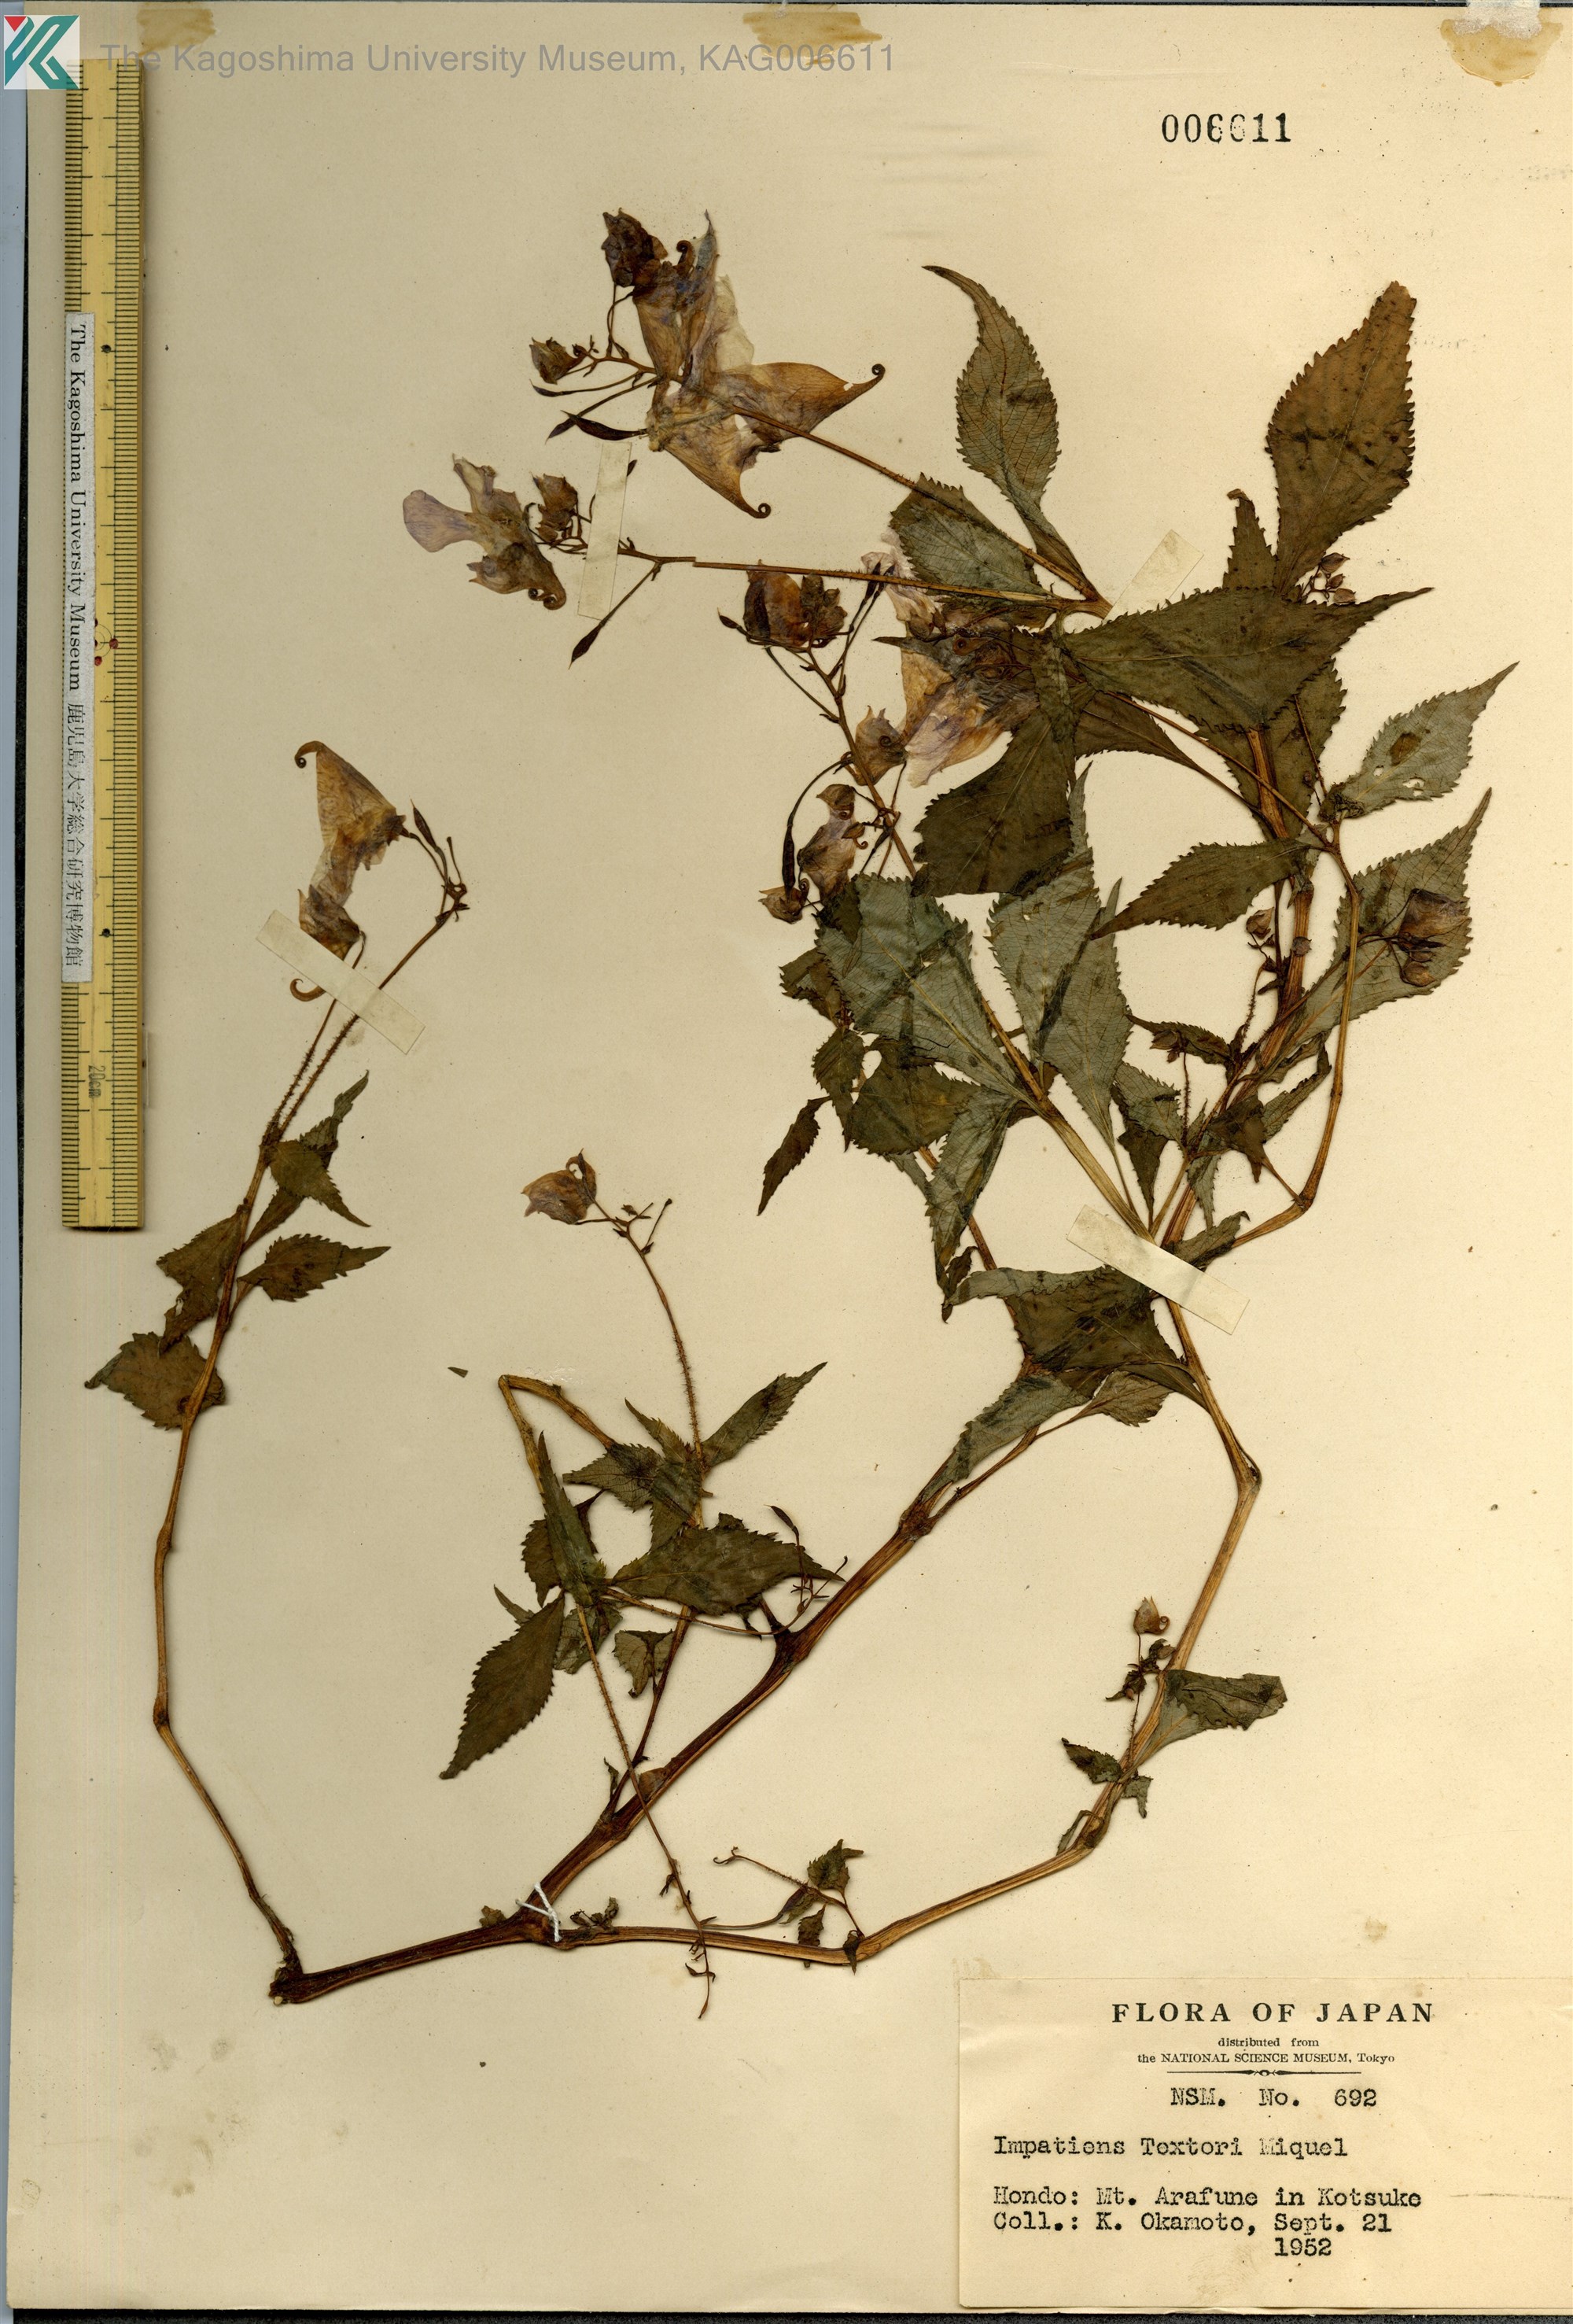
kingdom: Plantae
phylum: Tracheophyta
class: Magnoliopsida
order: Ericales
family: Balsaminaceae
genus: Impatiens
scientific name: Impatiens textorii
